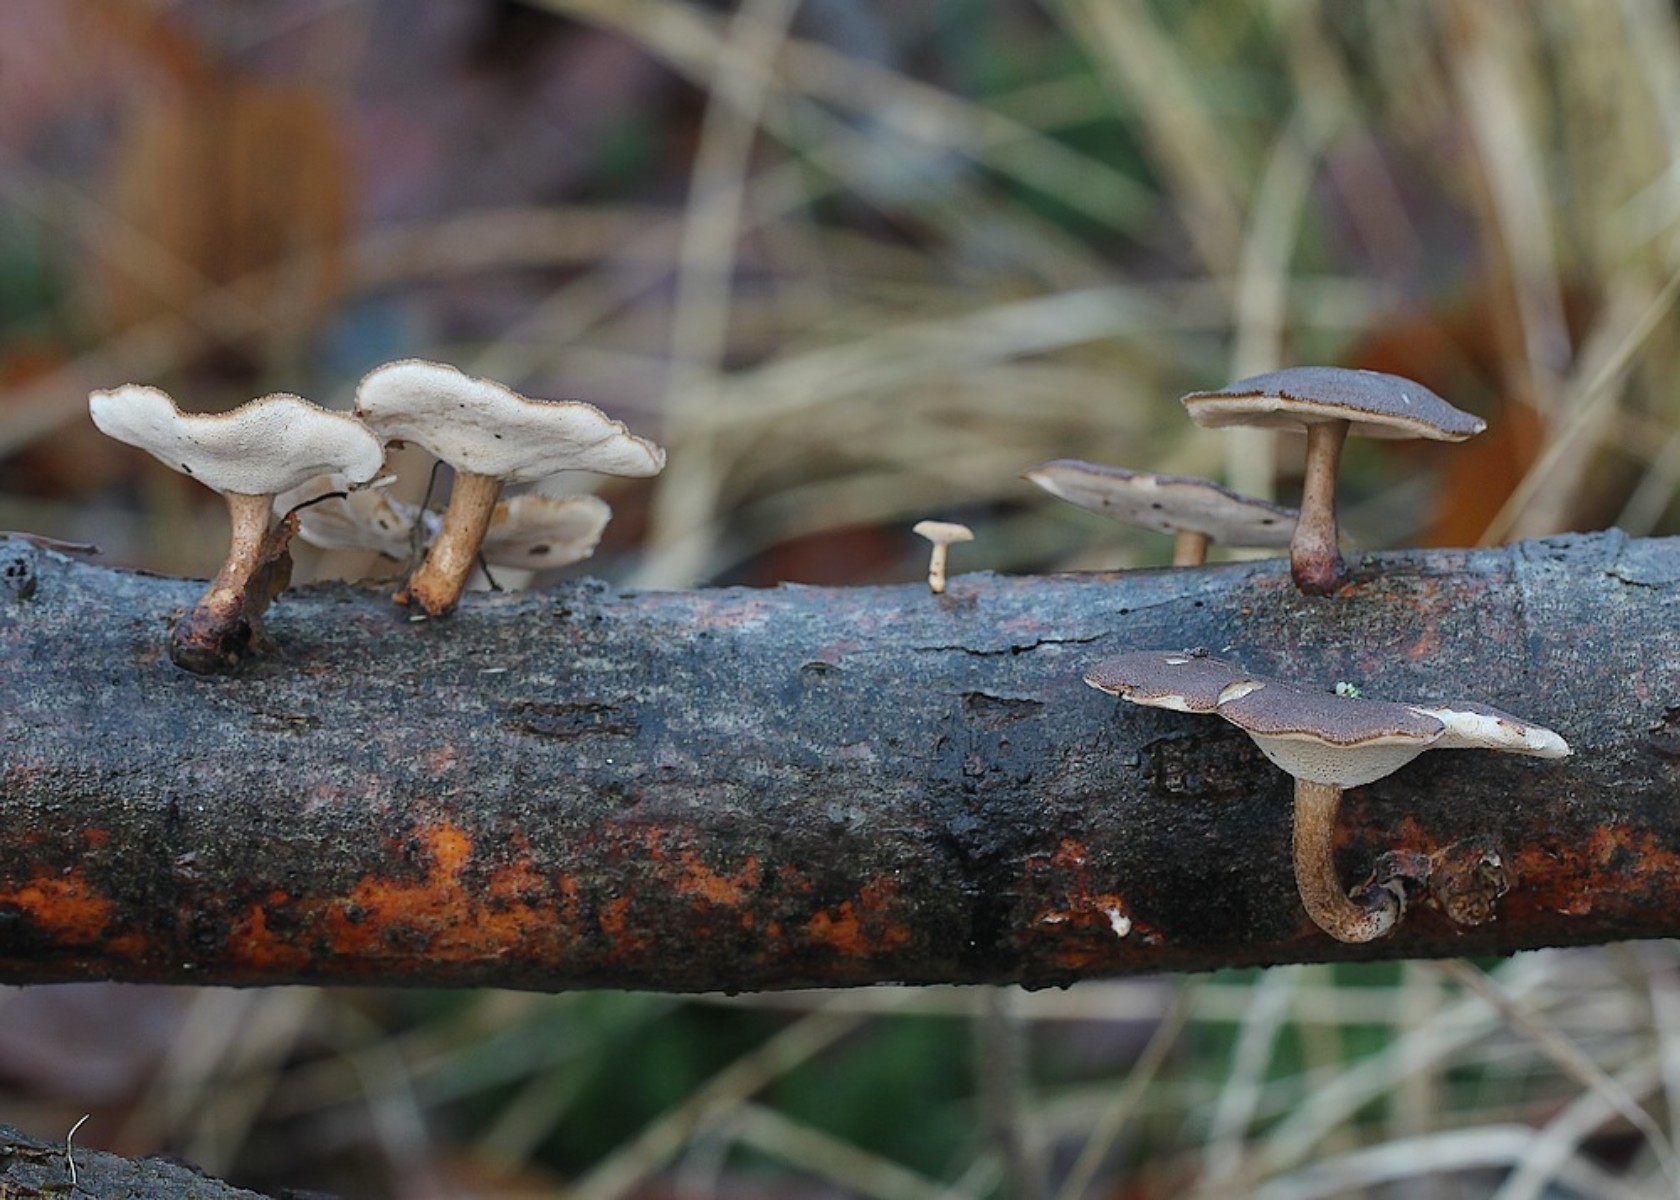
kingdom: Fungi
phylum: Basidiomycota
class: Agaricomycetes
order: Polyporales
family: Polyporaceae
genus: Lentinus
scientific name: Lentinus brumalis
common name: vinter-stilkporesvamp
